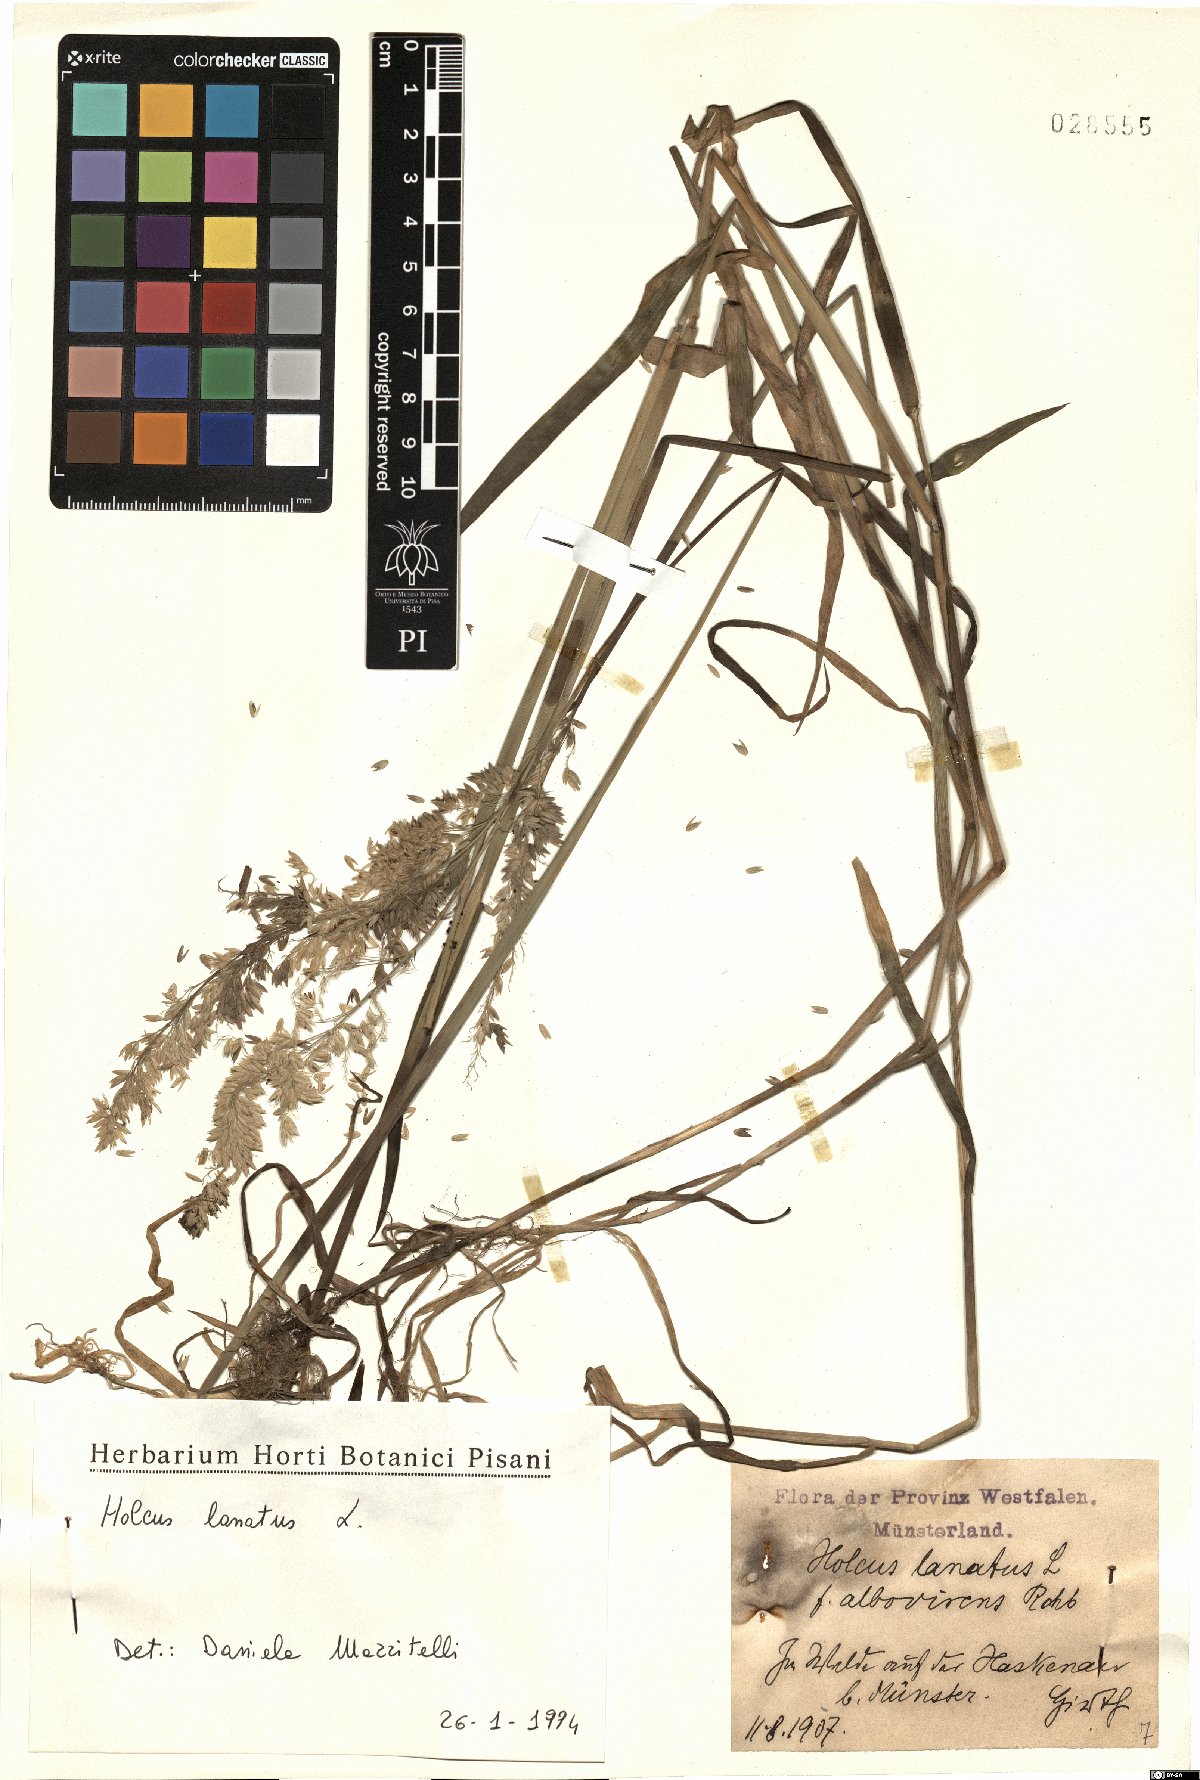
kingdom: Plantae
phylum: Tracheophyta
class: Liliopsida
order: Poales
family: Poaceae
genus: Holcus
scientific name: Holcus lanatus
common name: Yorkshire-fog
